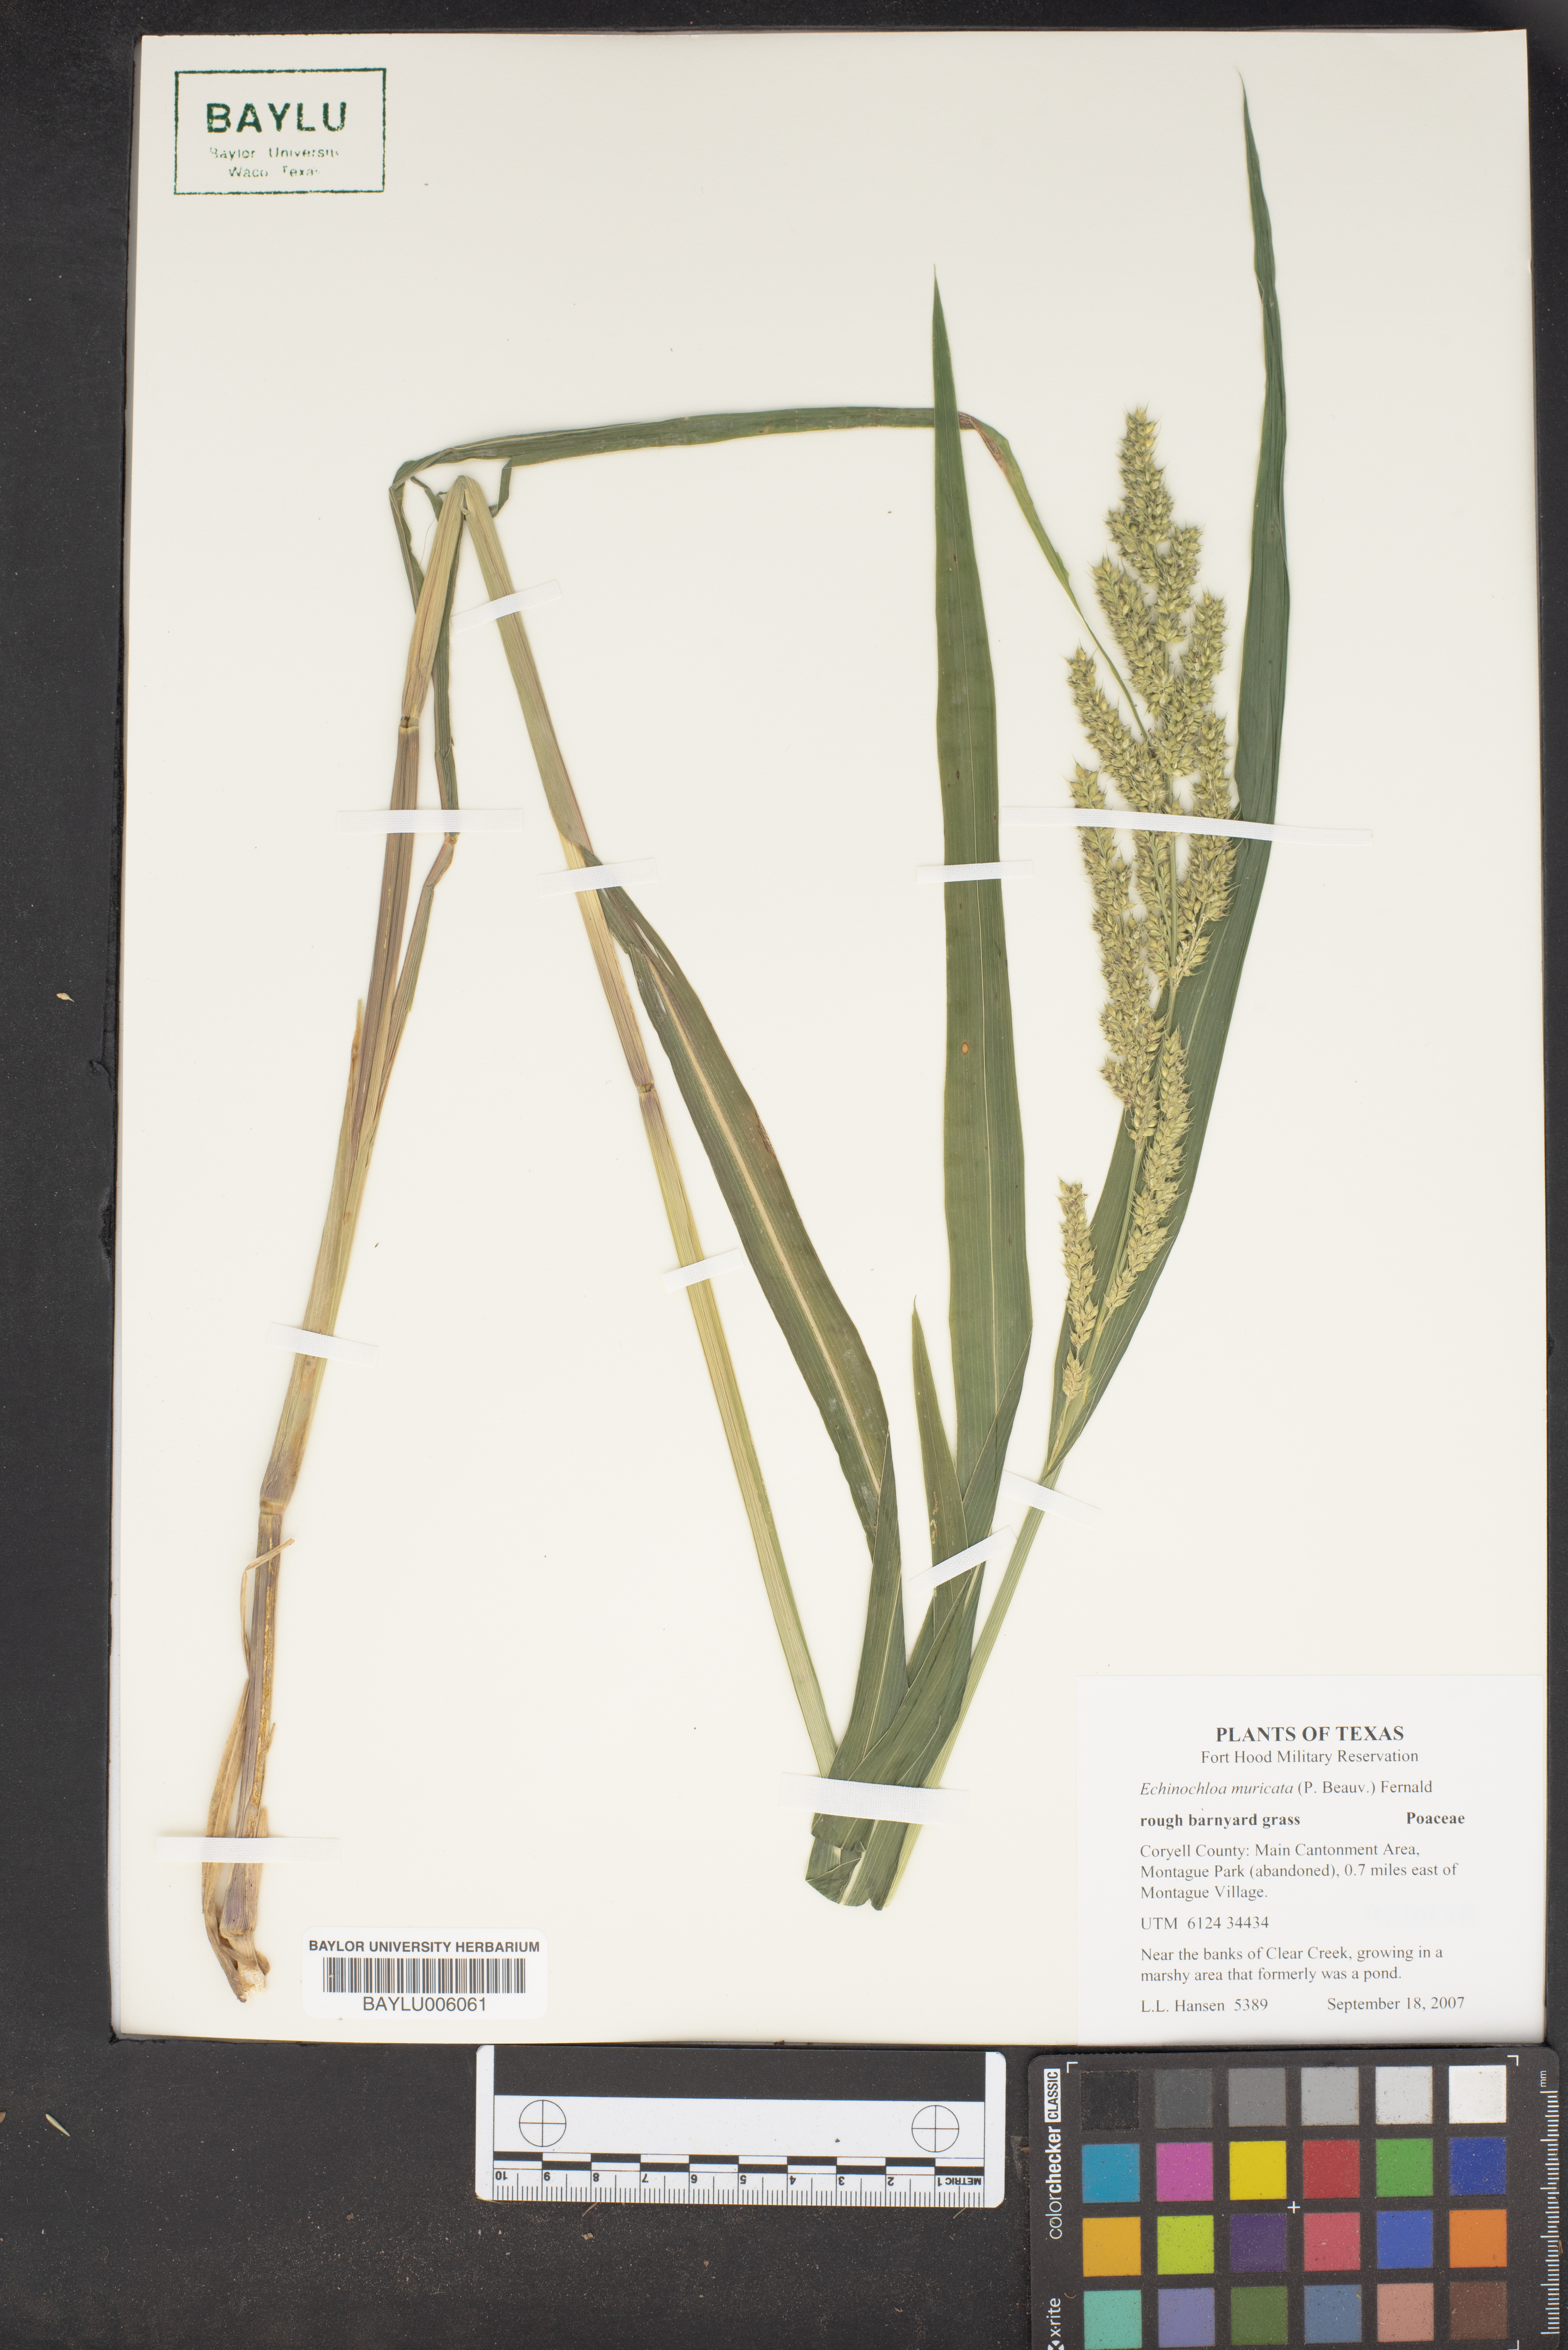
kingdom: Plantae
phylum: Tracheophyta
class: Liliopsida
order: Poales
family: Poaceae
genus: Echinochloa
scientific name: Echinochloa muricata
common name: American barnyard grass
